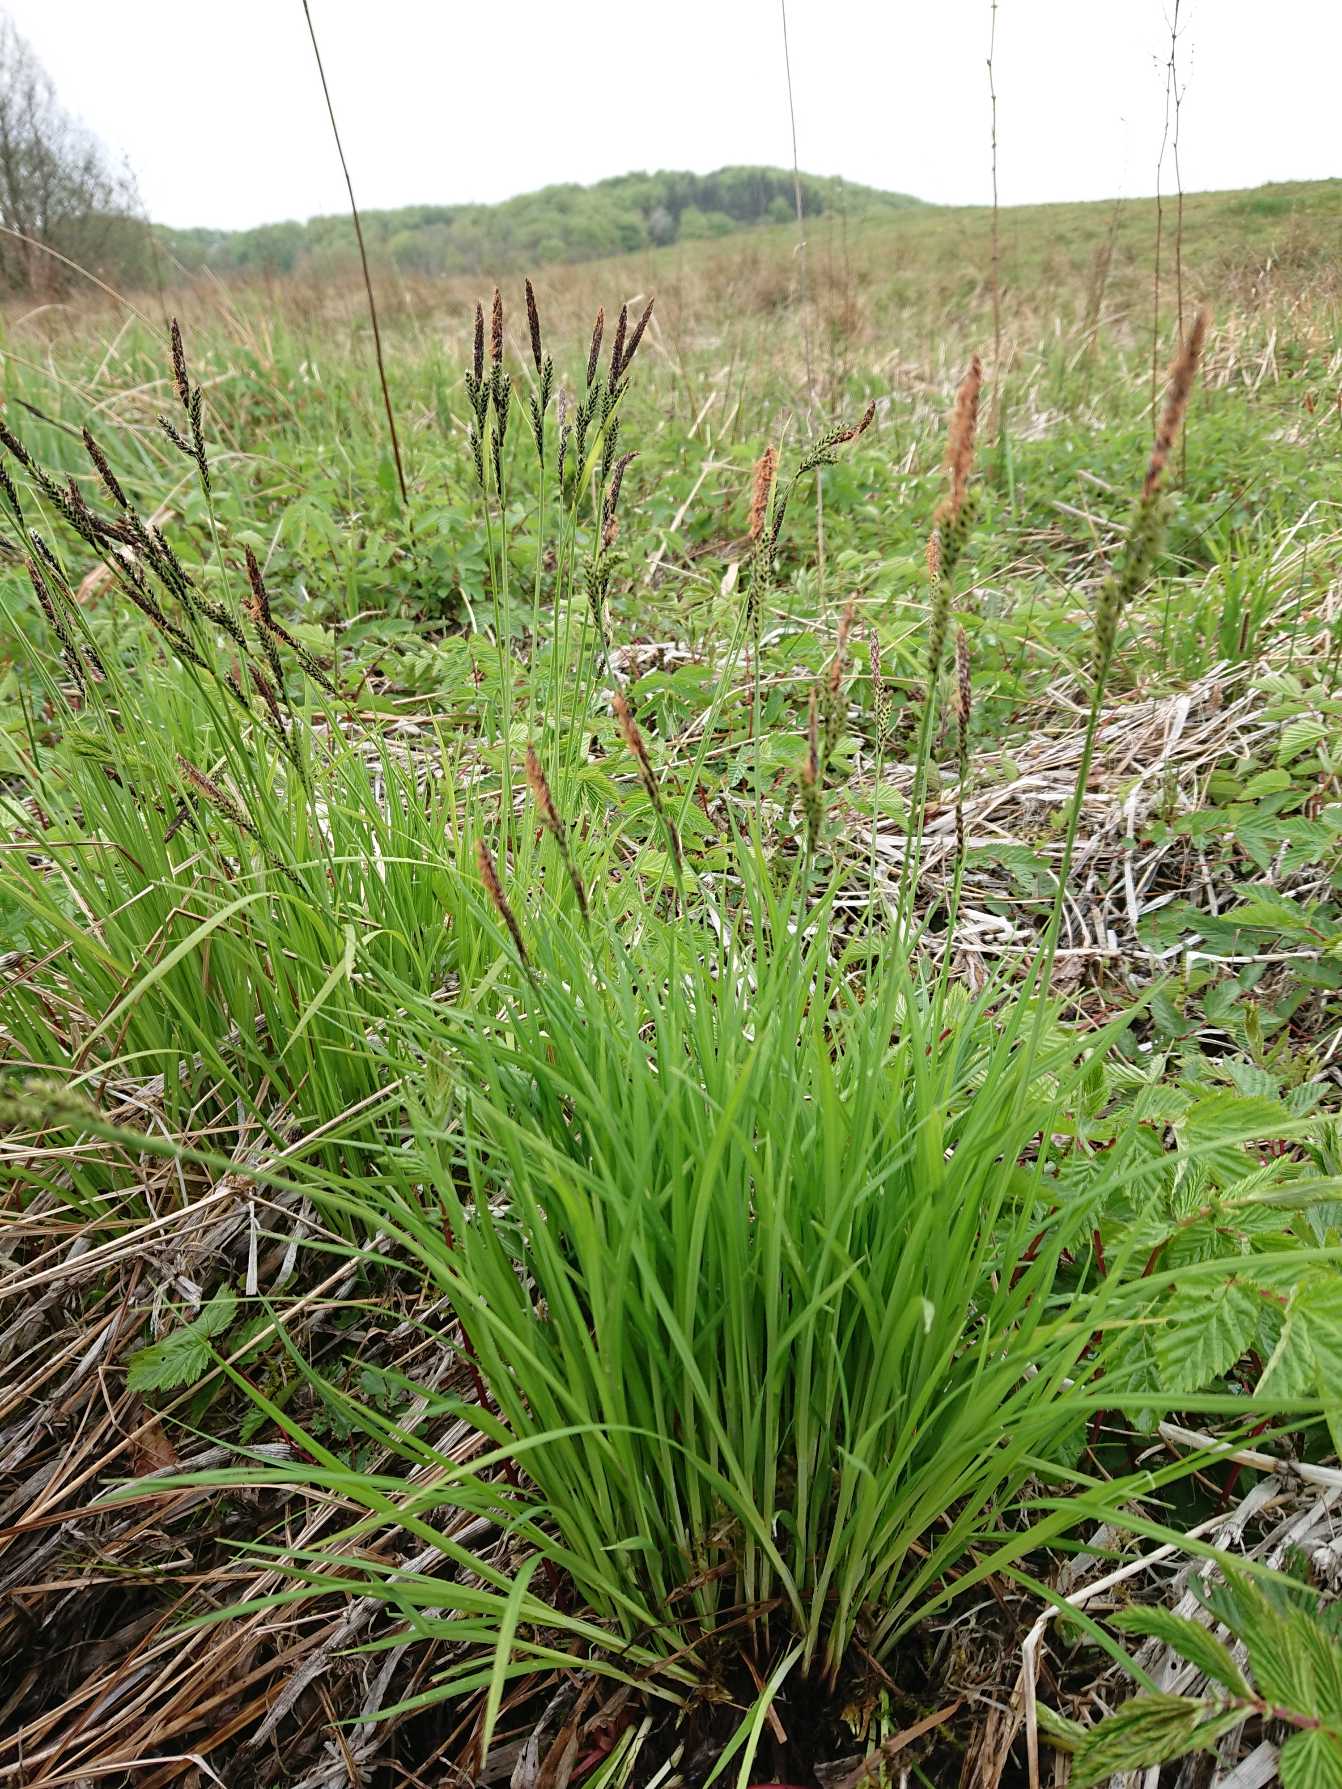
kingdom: Plantae
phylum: Tracheophyta
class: Liliopsida
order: Poales
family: Cyperaceae
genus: Carex
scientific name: Carex cespitosa
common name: Tue-star
